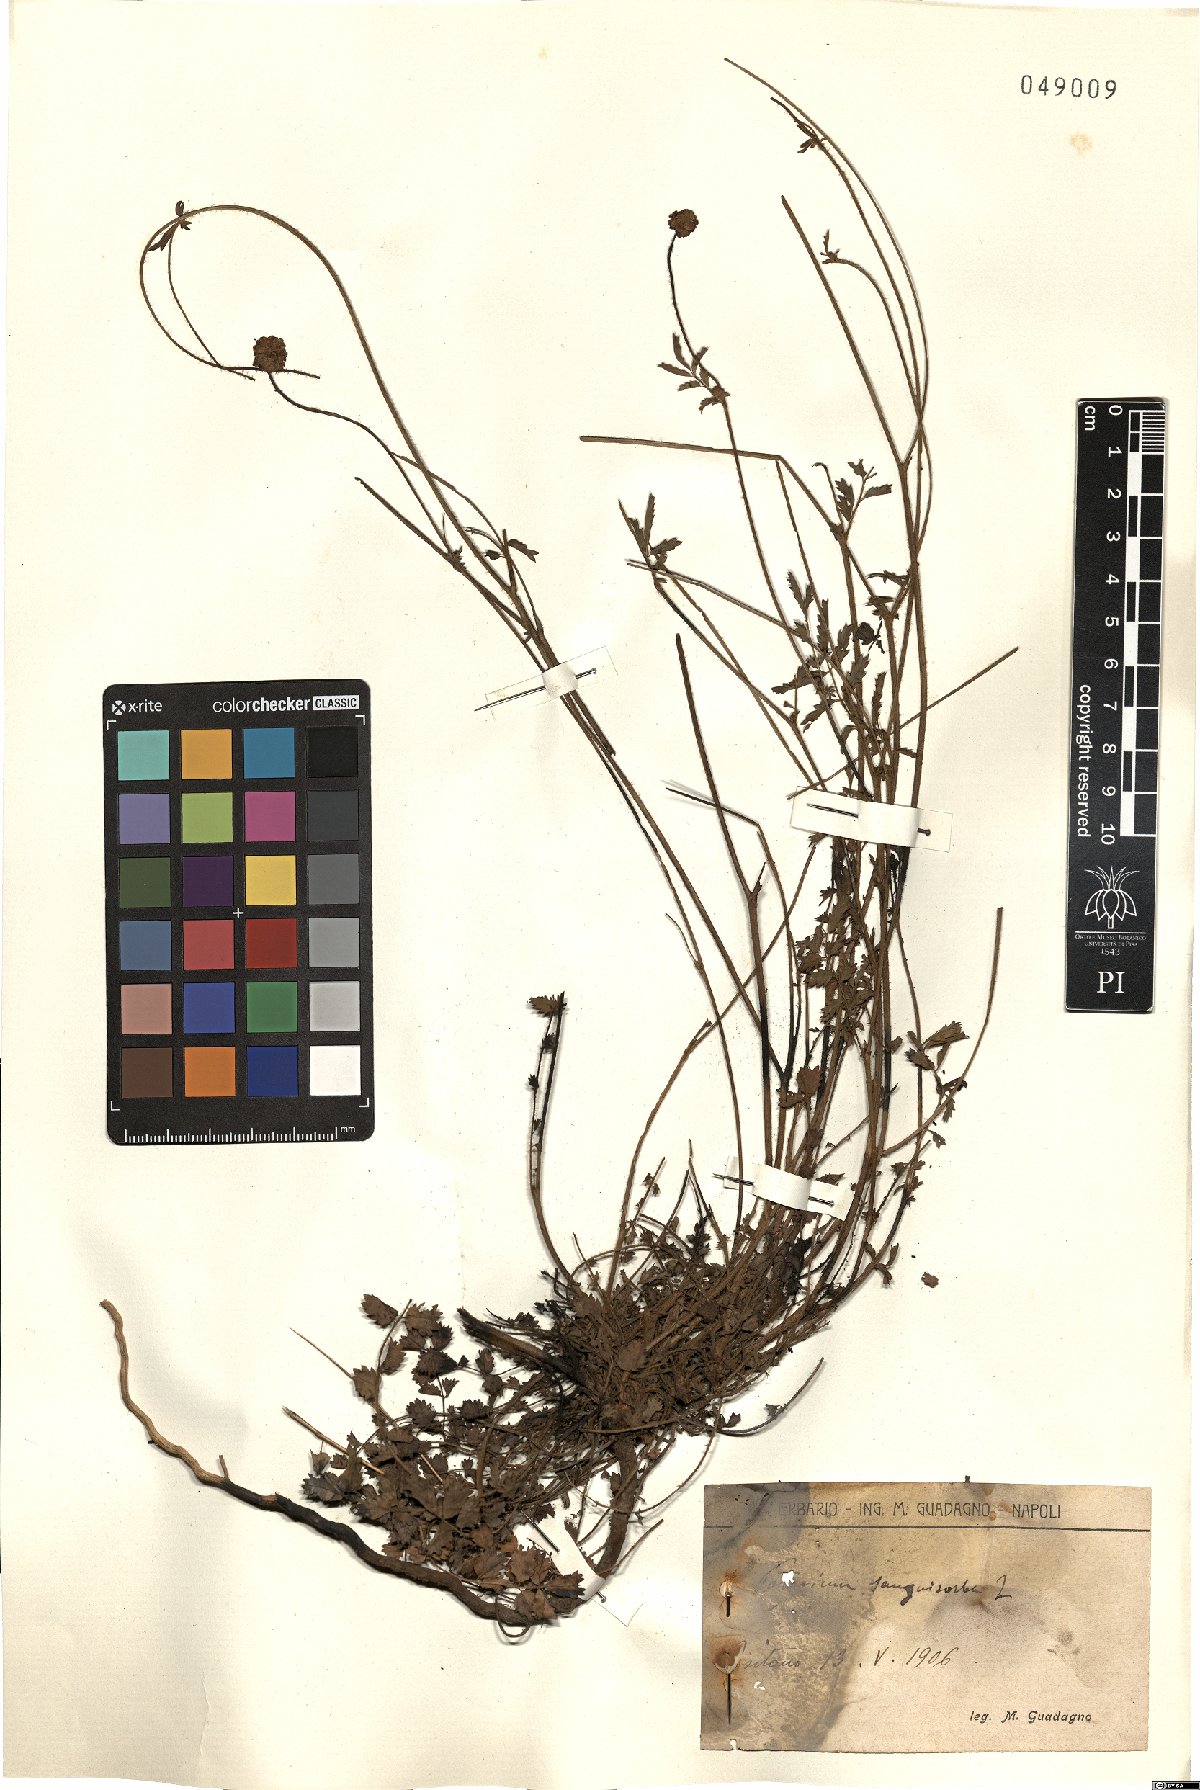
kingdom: Plantae
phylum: Tracheophyta
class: Magnoliopsida
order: Rosales
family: Rosaceae
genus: Poterium
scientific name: Poterium sanguisorba
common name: Salad burnet
